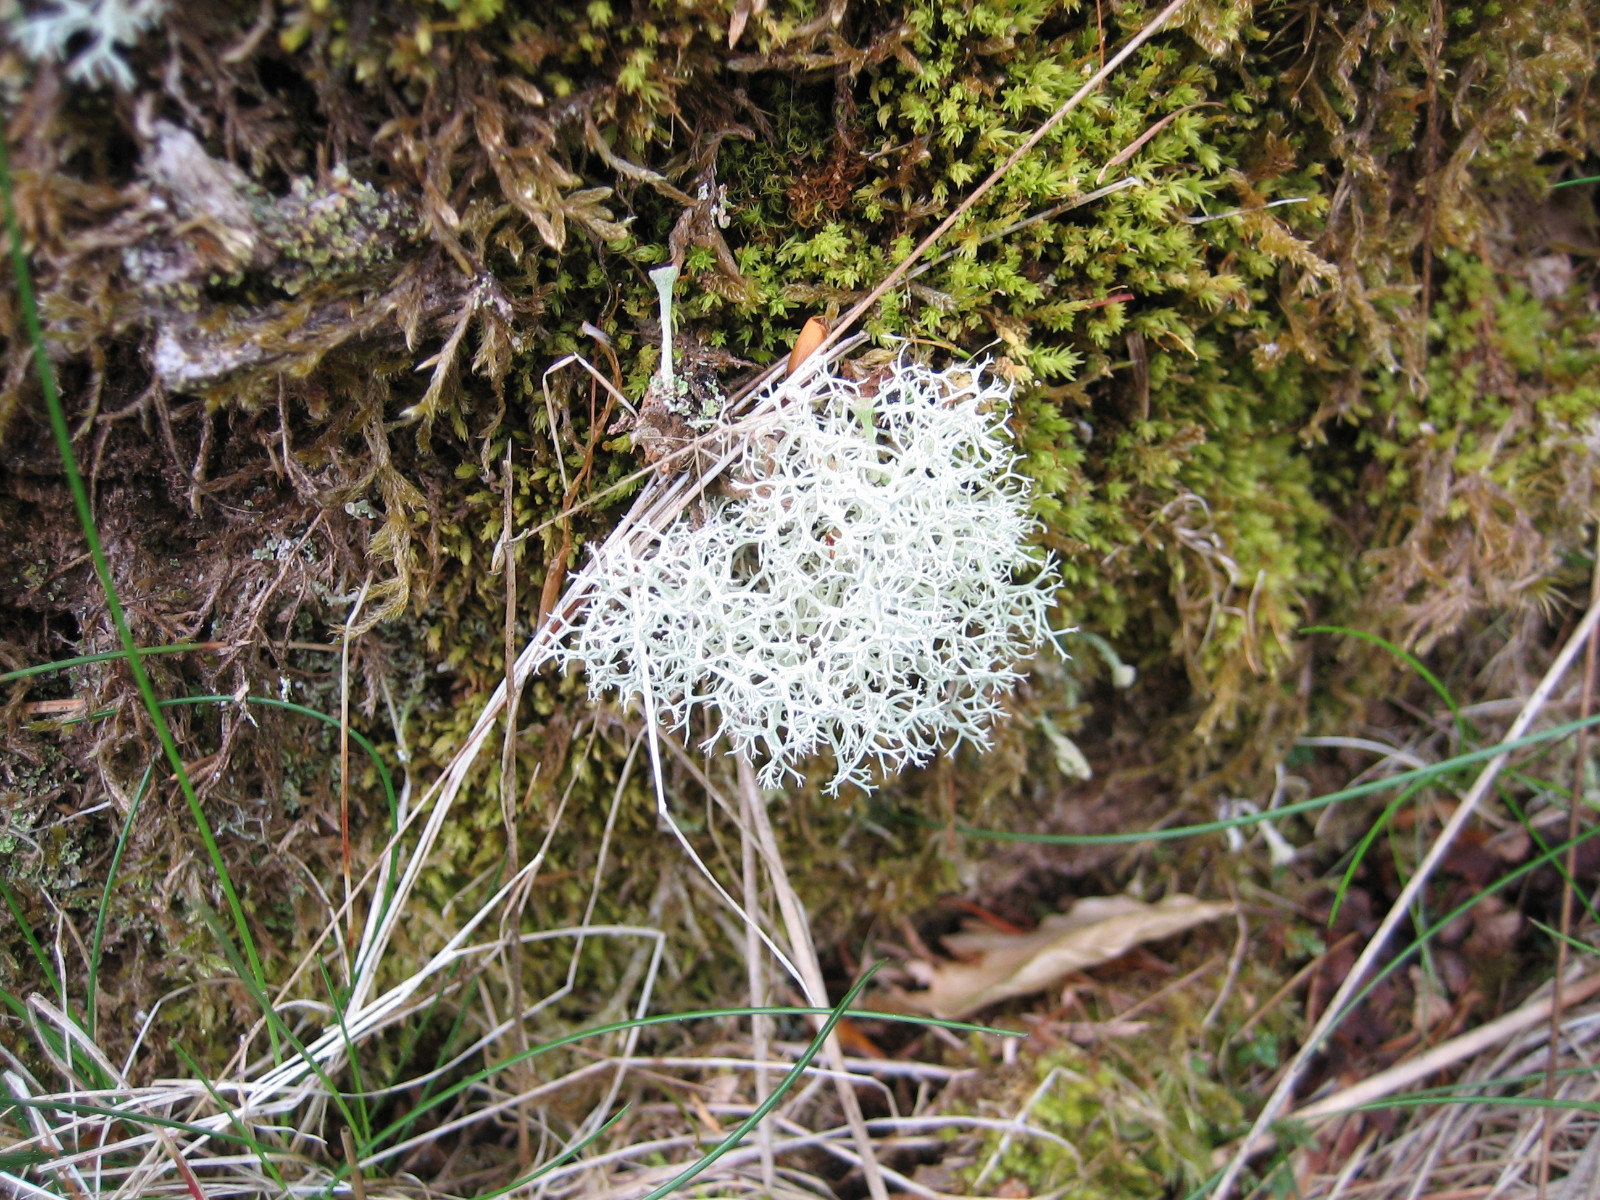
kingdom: Fungi
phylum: Ascomycota
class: Lecanoromycetes
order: Lecanorales
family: Cladoniaceae
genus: Cladonia
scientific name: Cladonia portentosa
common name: hede-rensdyrlav
